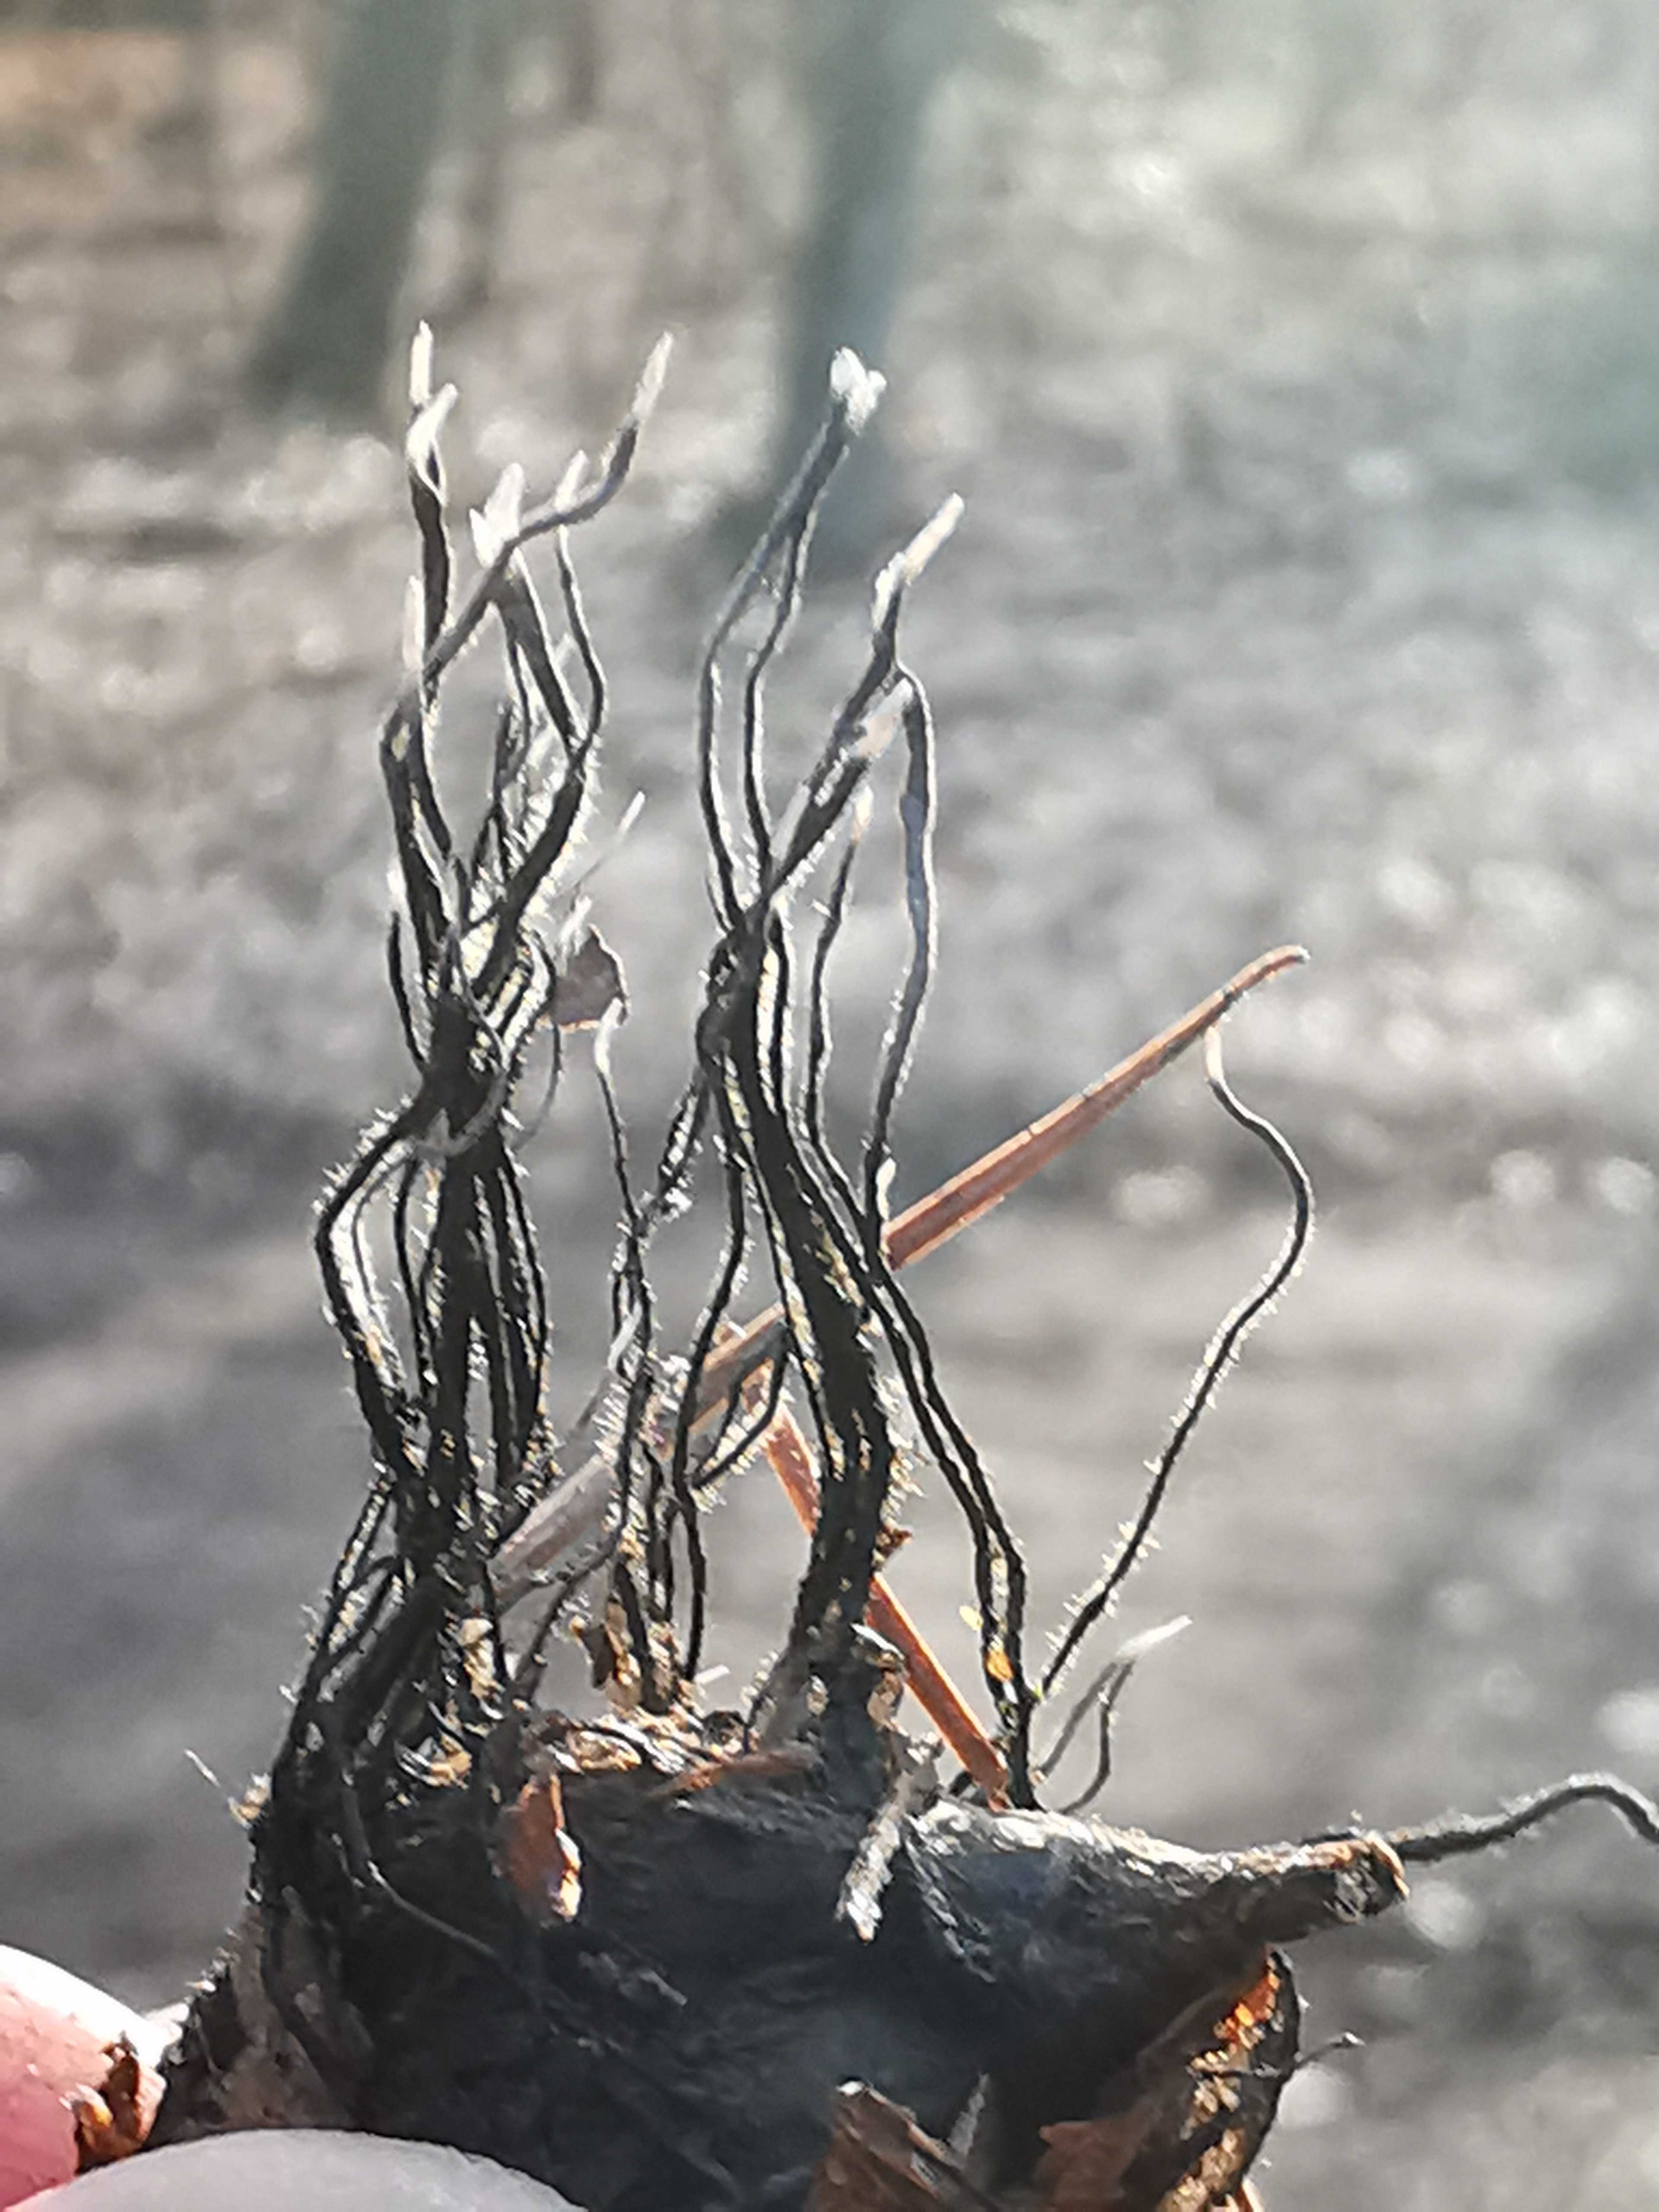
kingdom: Fungi
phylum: Ascomycota
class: Sordariomycetes
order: Xylariales
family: Xylariaceae
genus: Xylaria
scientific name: Xylaria carpophila
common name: bogskål-stødsvamp
